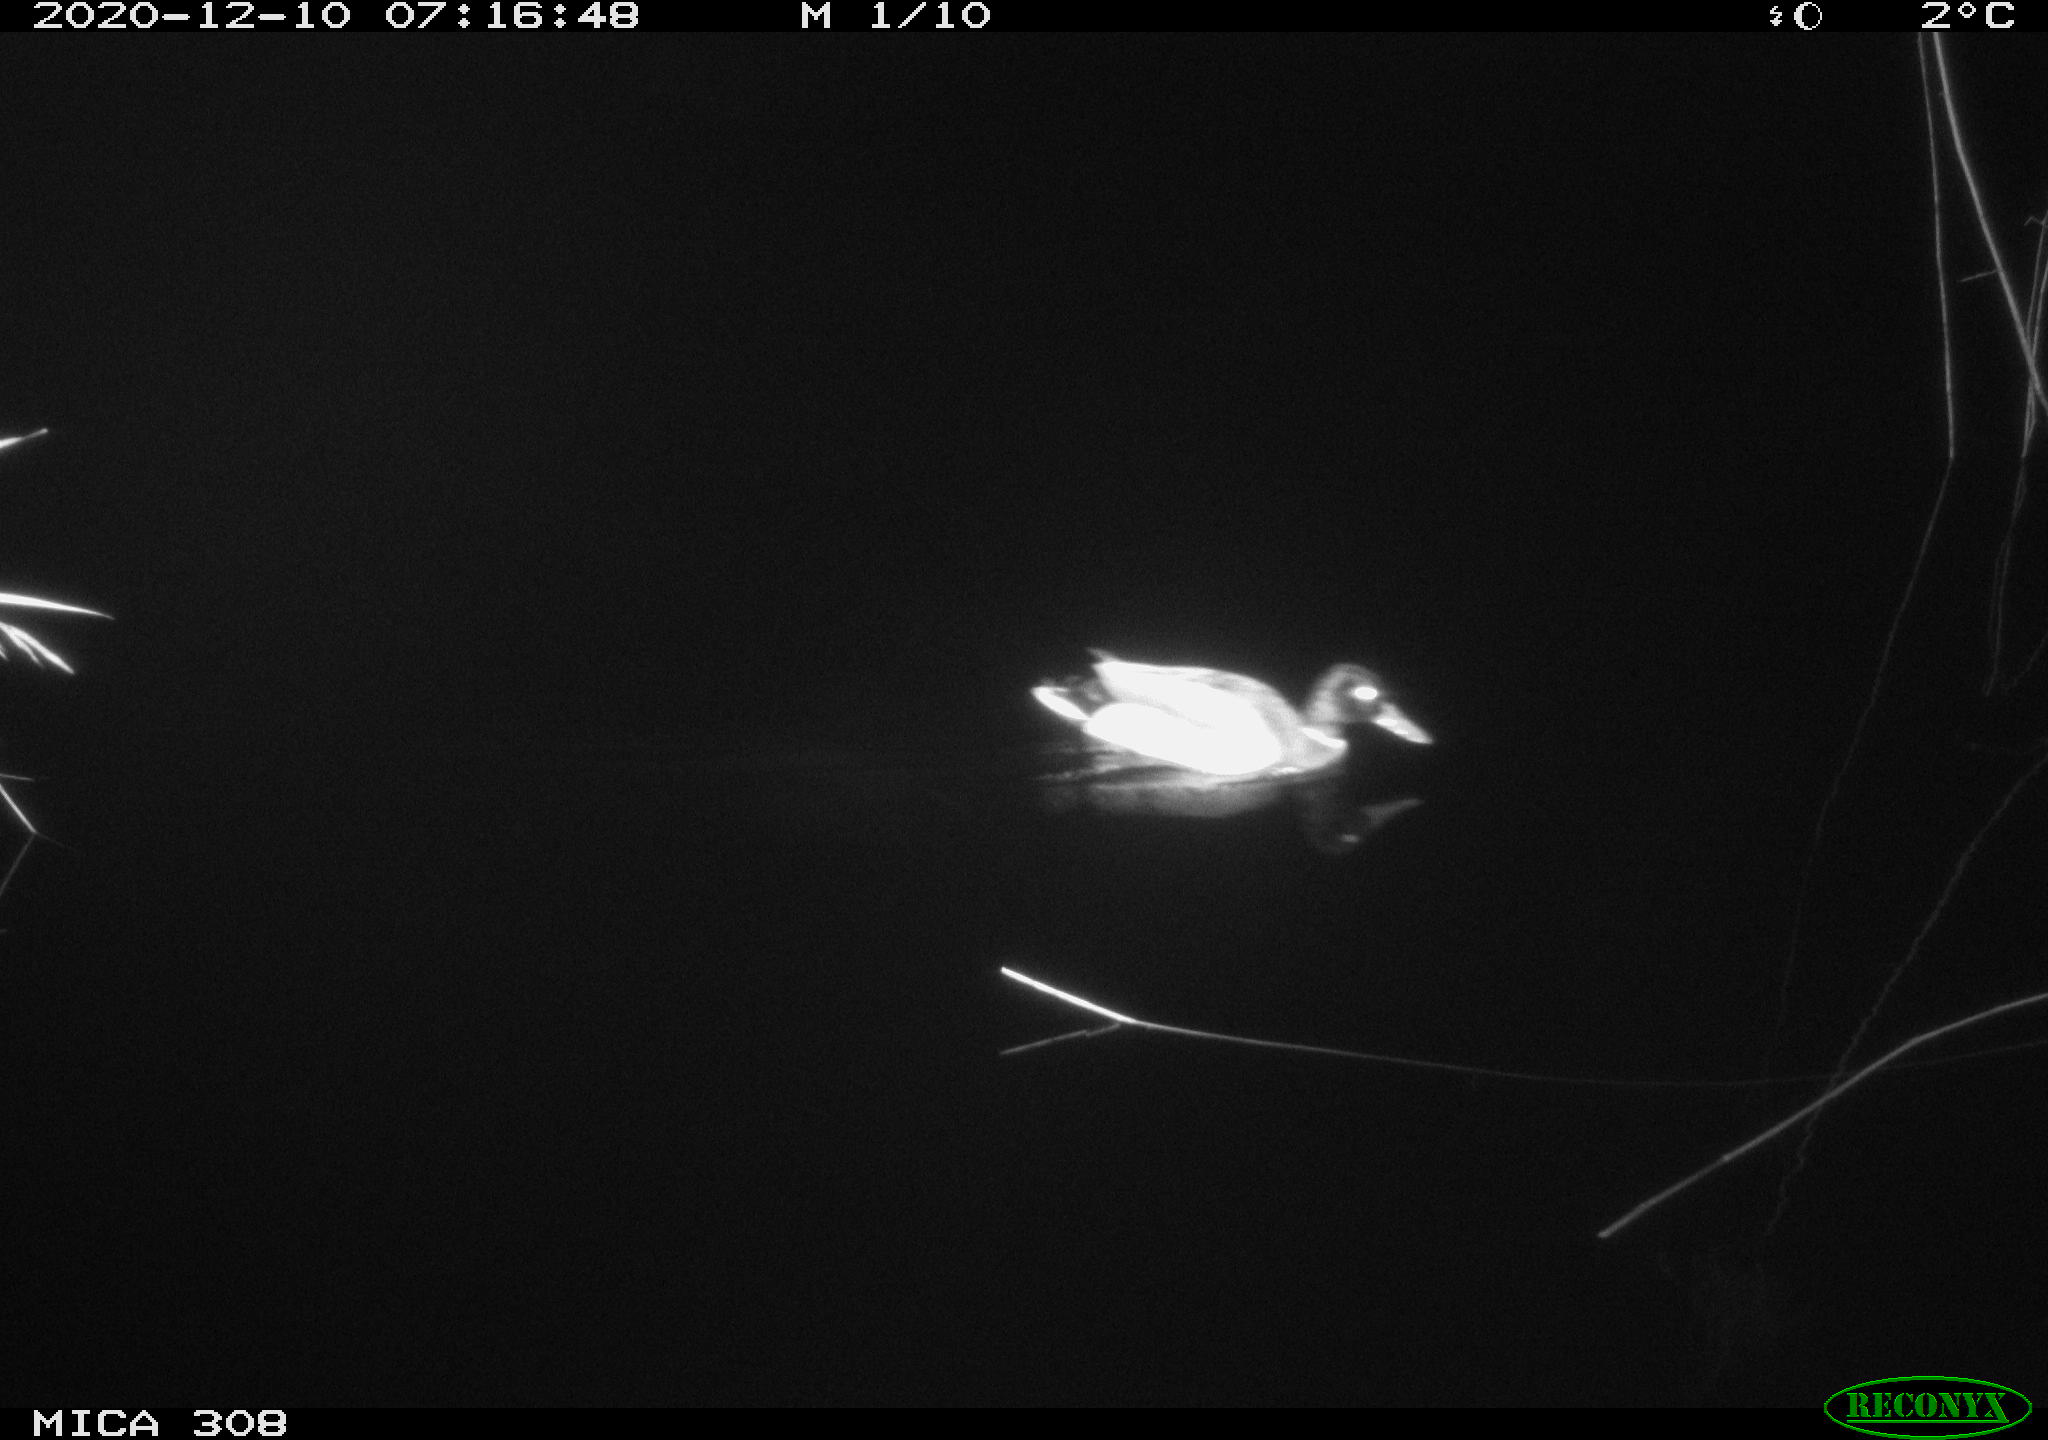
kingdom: Animalia
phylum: Chordata
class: Aves
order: Anseriformes
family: Anatidae
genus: Anas
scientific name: Anas platyrhynchos
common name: Mallard
